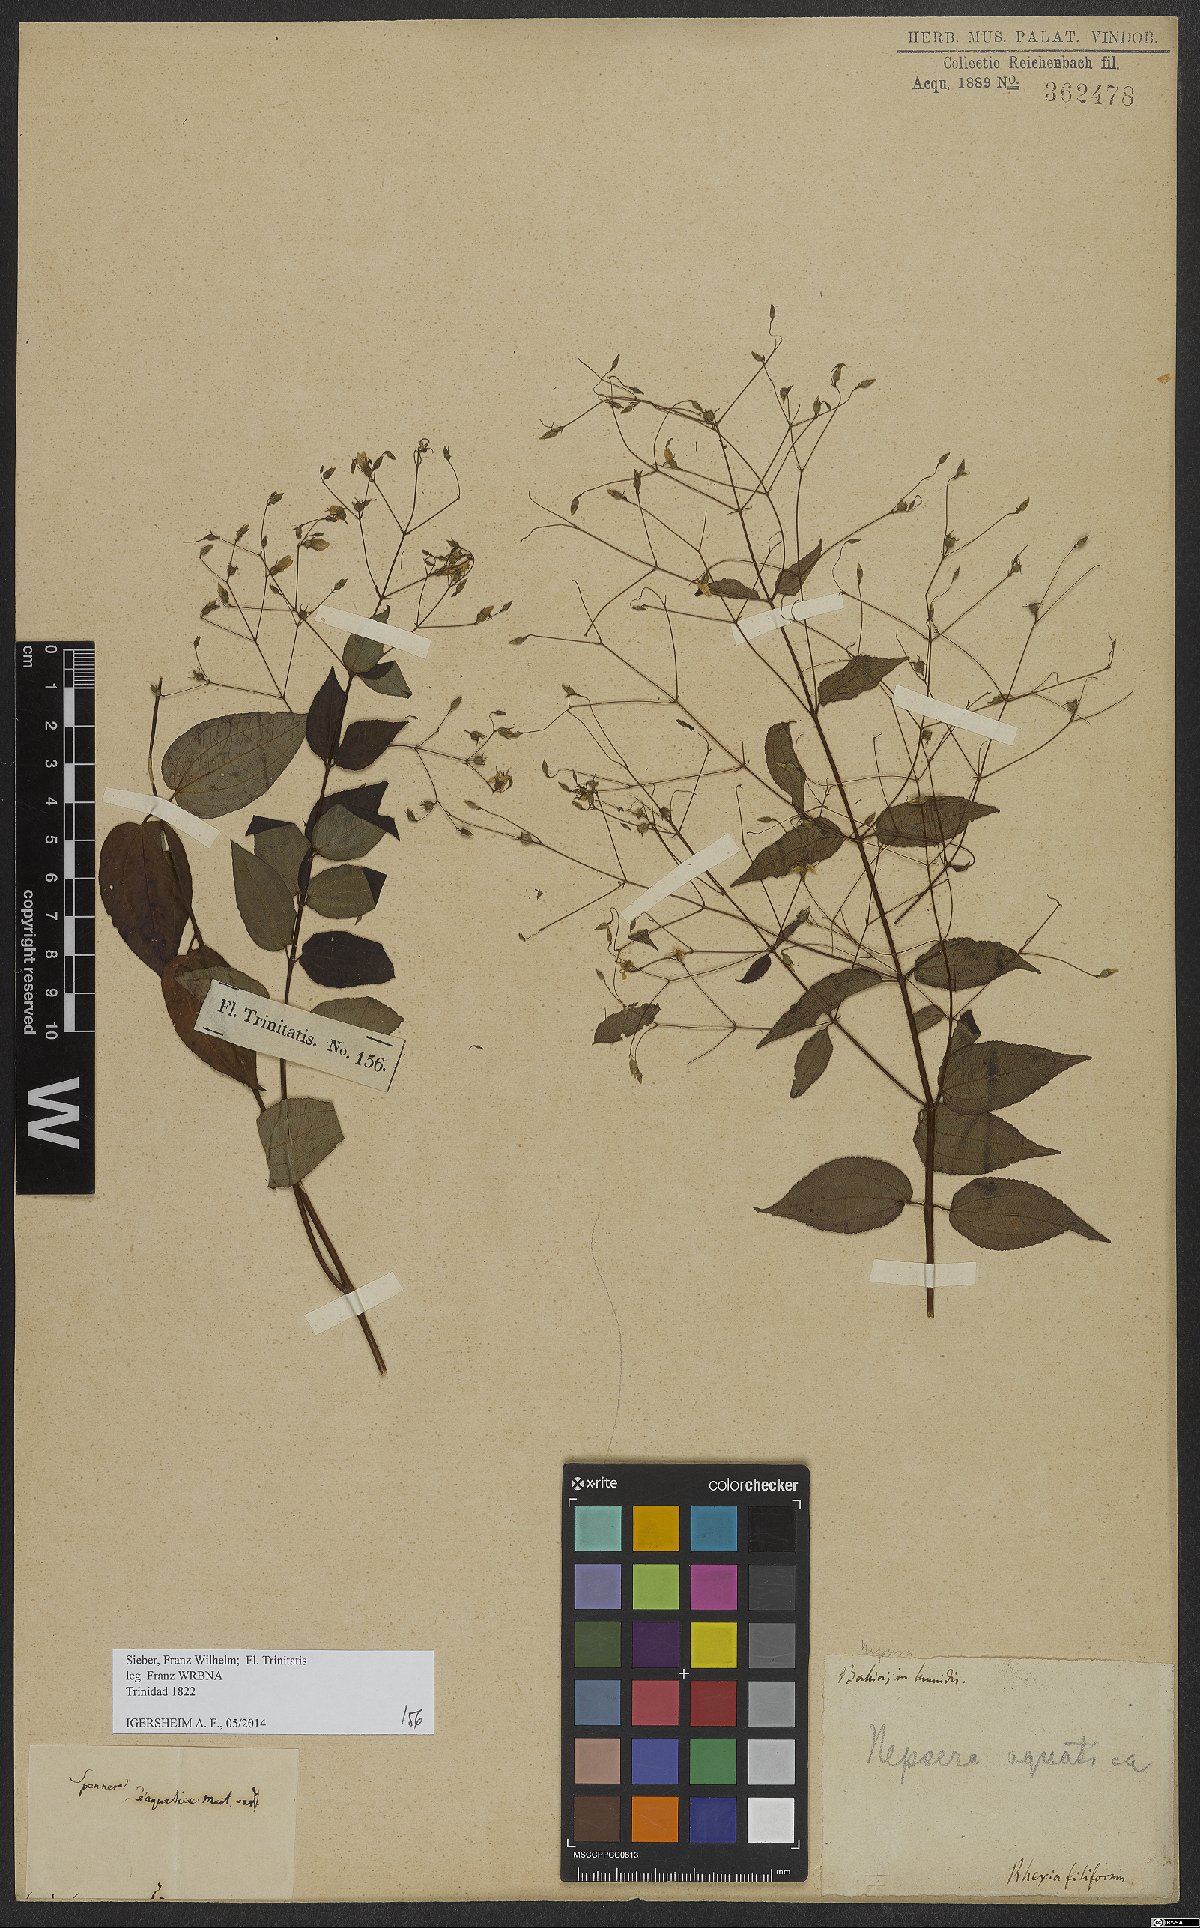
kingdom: Plantae
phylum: Tracheophyta
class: Magnoliopsida
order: Myrtales
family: Melastomataceae
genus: Nepsera
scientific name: Nepsera aquatica
